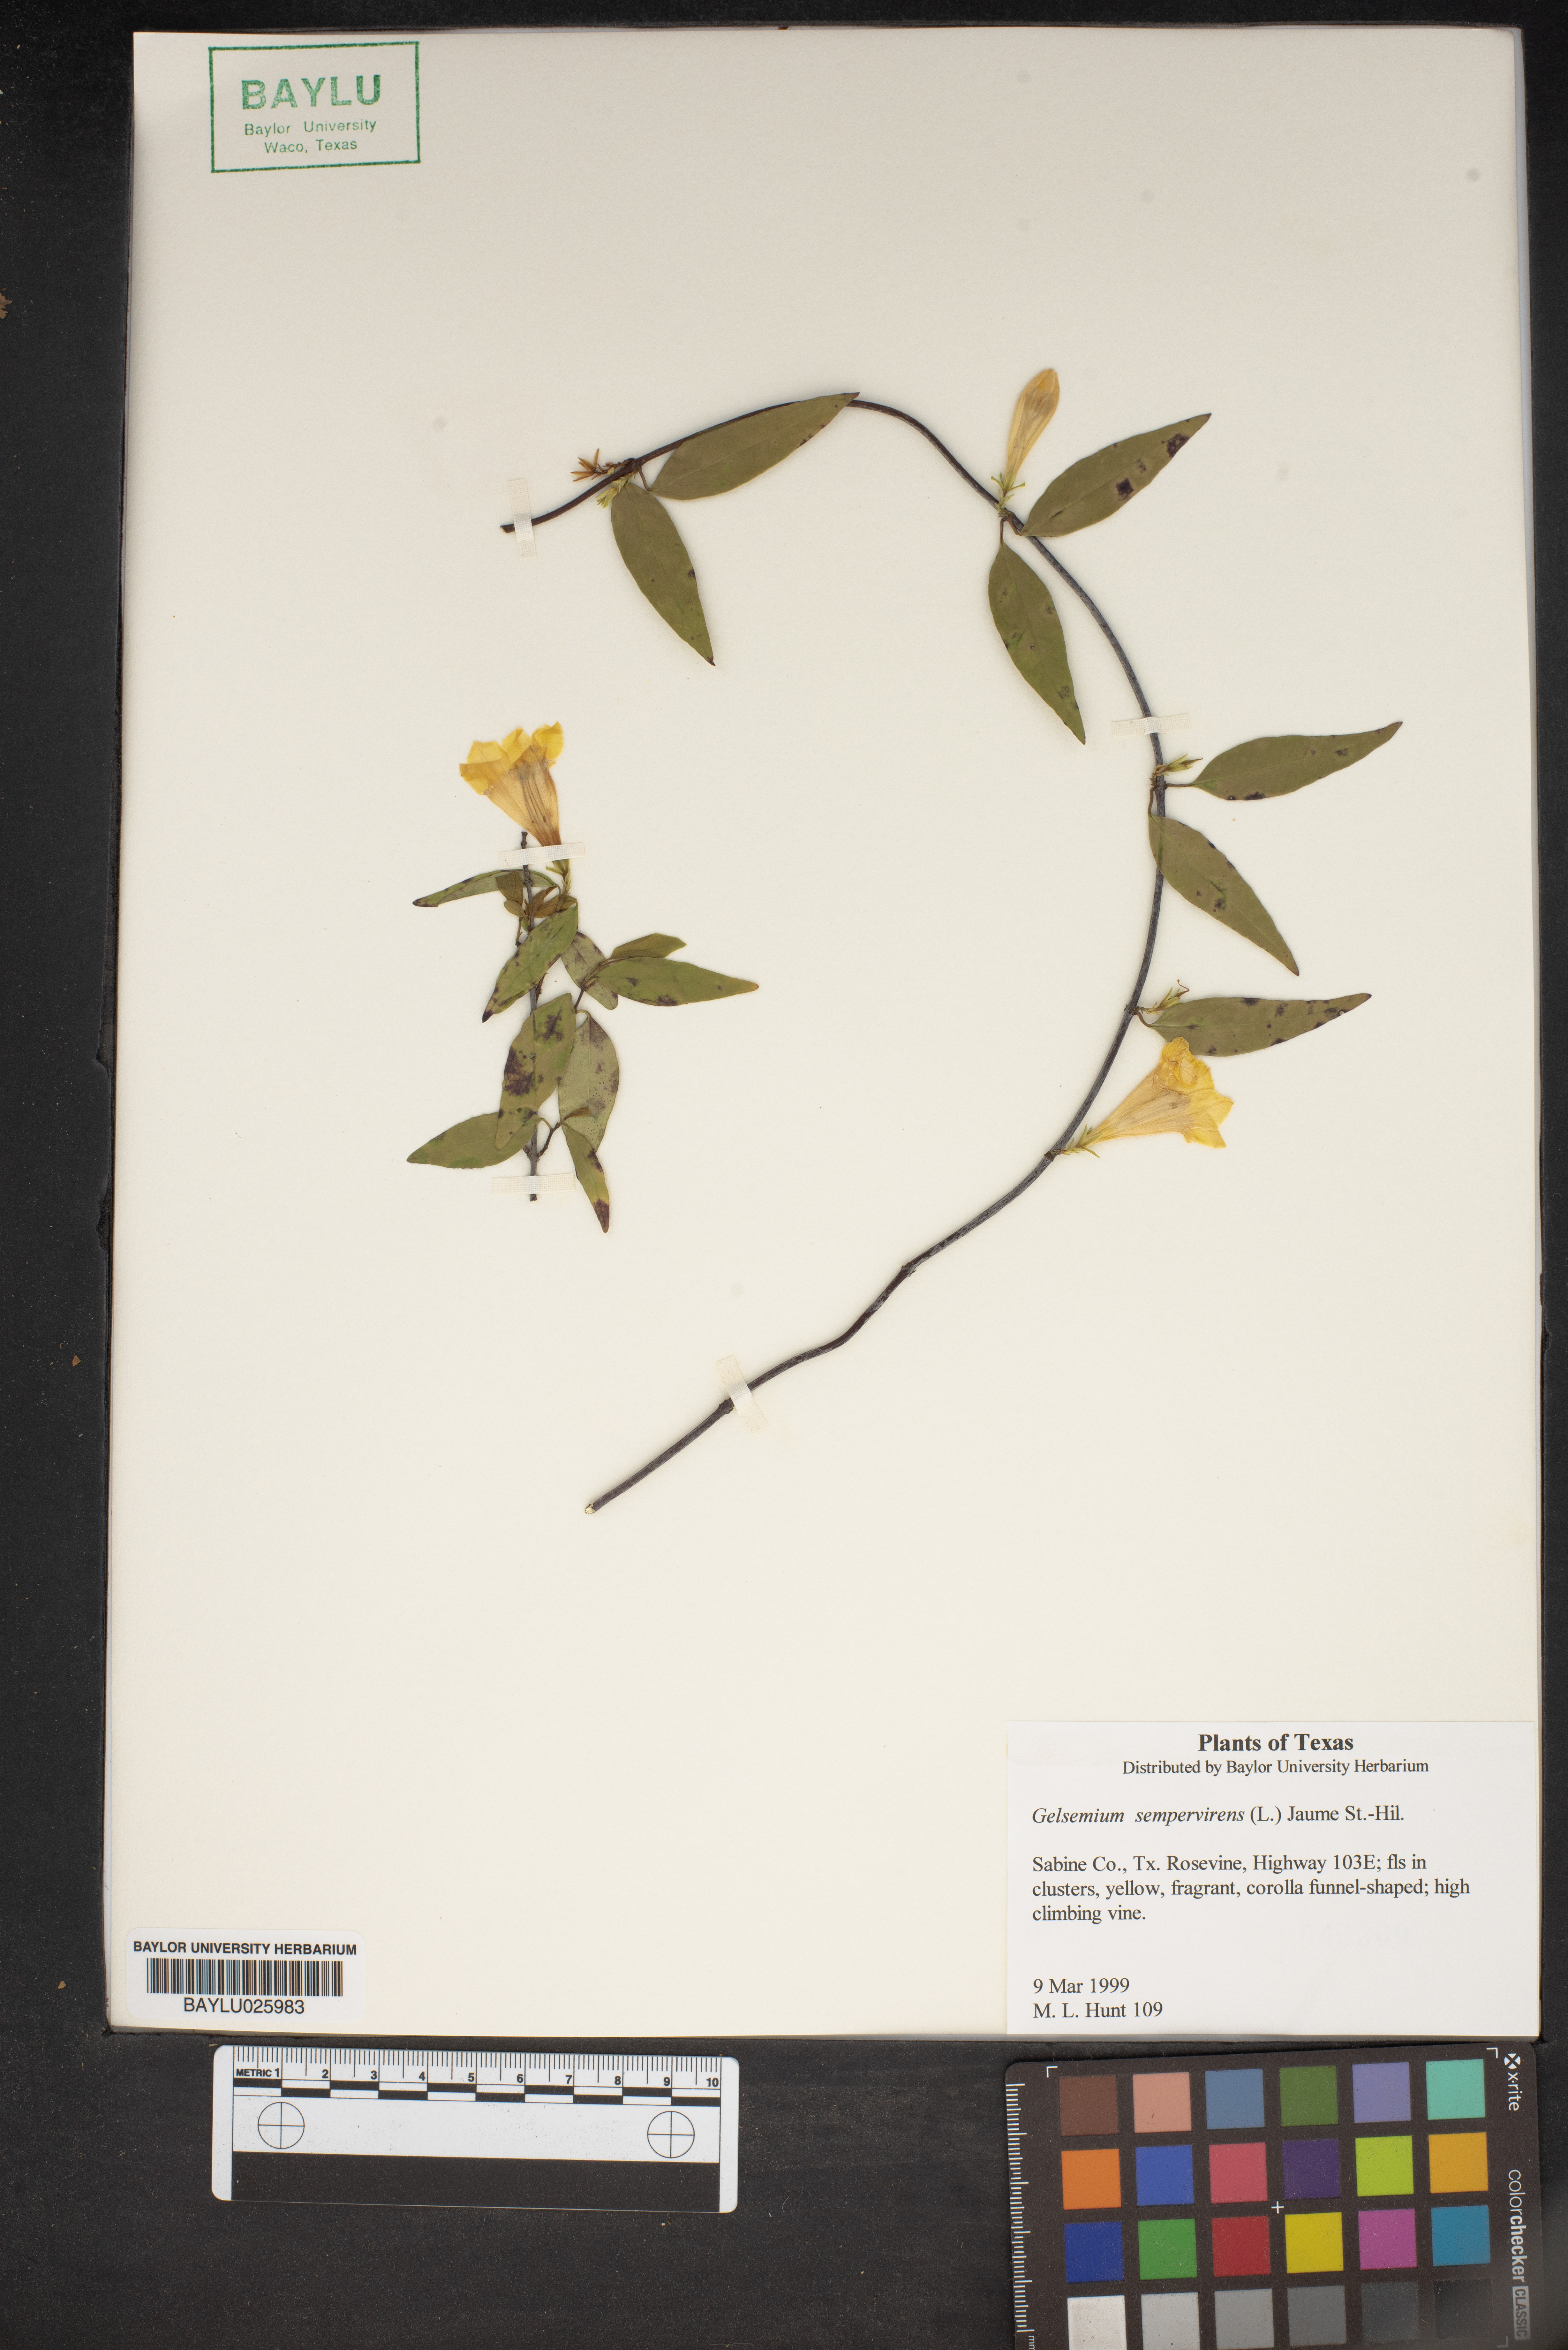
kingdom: Plantae
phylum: Tracheophyta
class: Magnoliopsida
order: Gentianales
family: Gelsemiaceae
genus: Gelsemium
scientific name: Gelsemium sempervirens
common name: Carolina-jasmine
